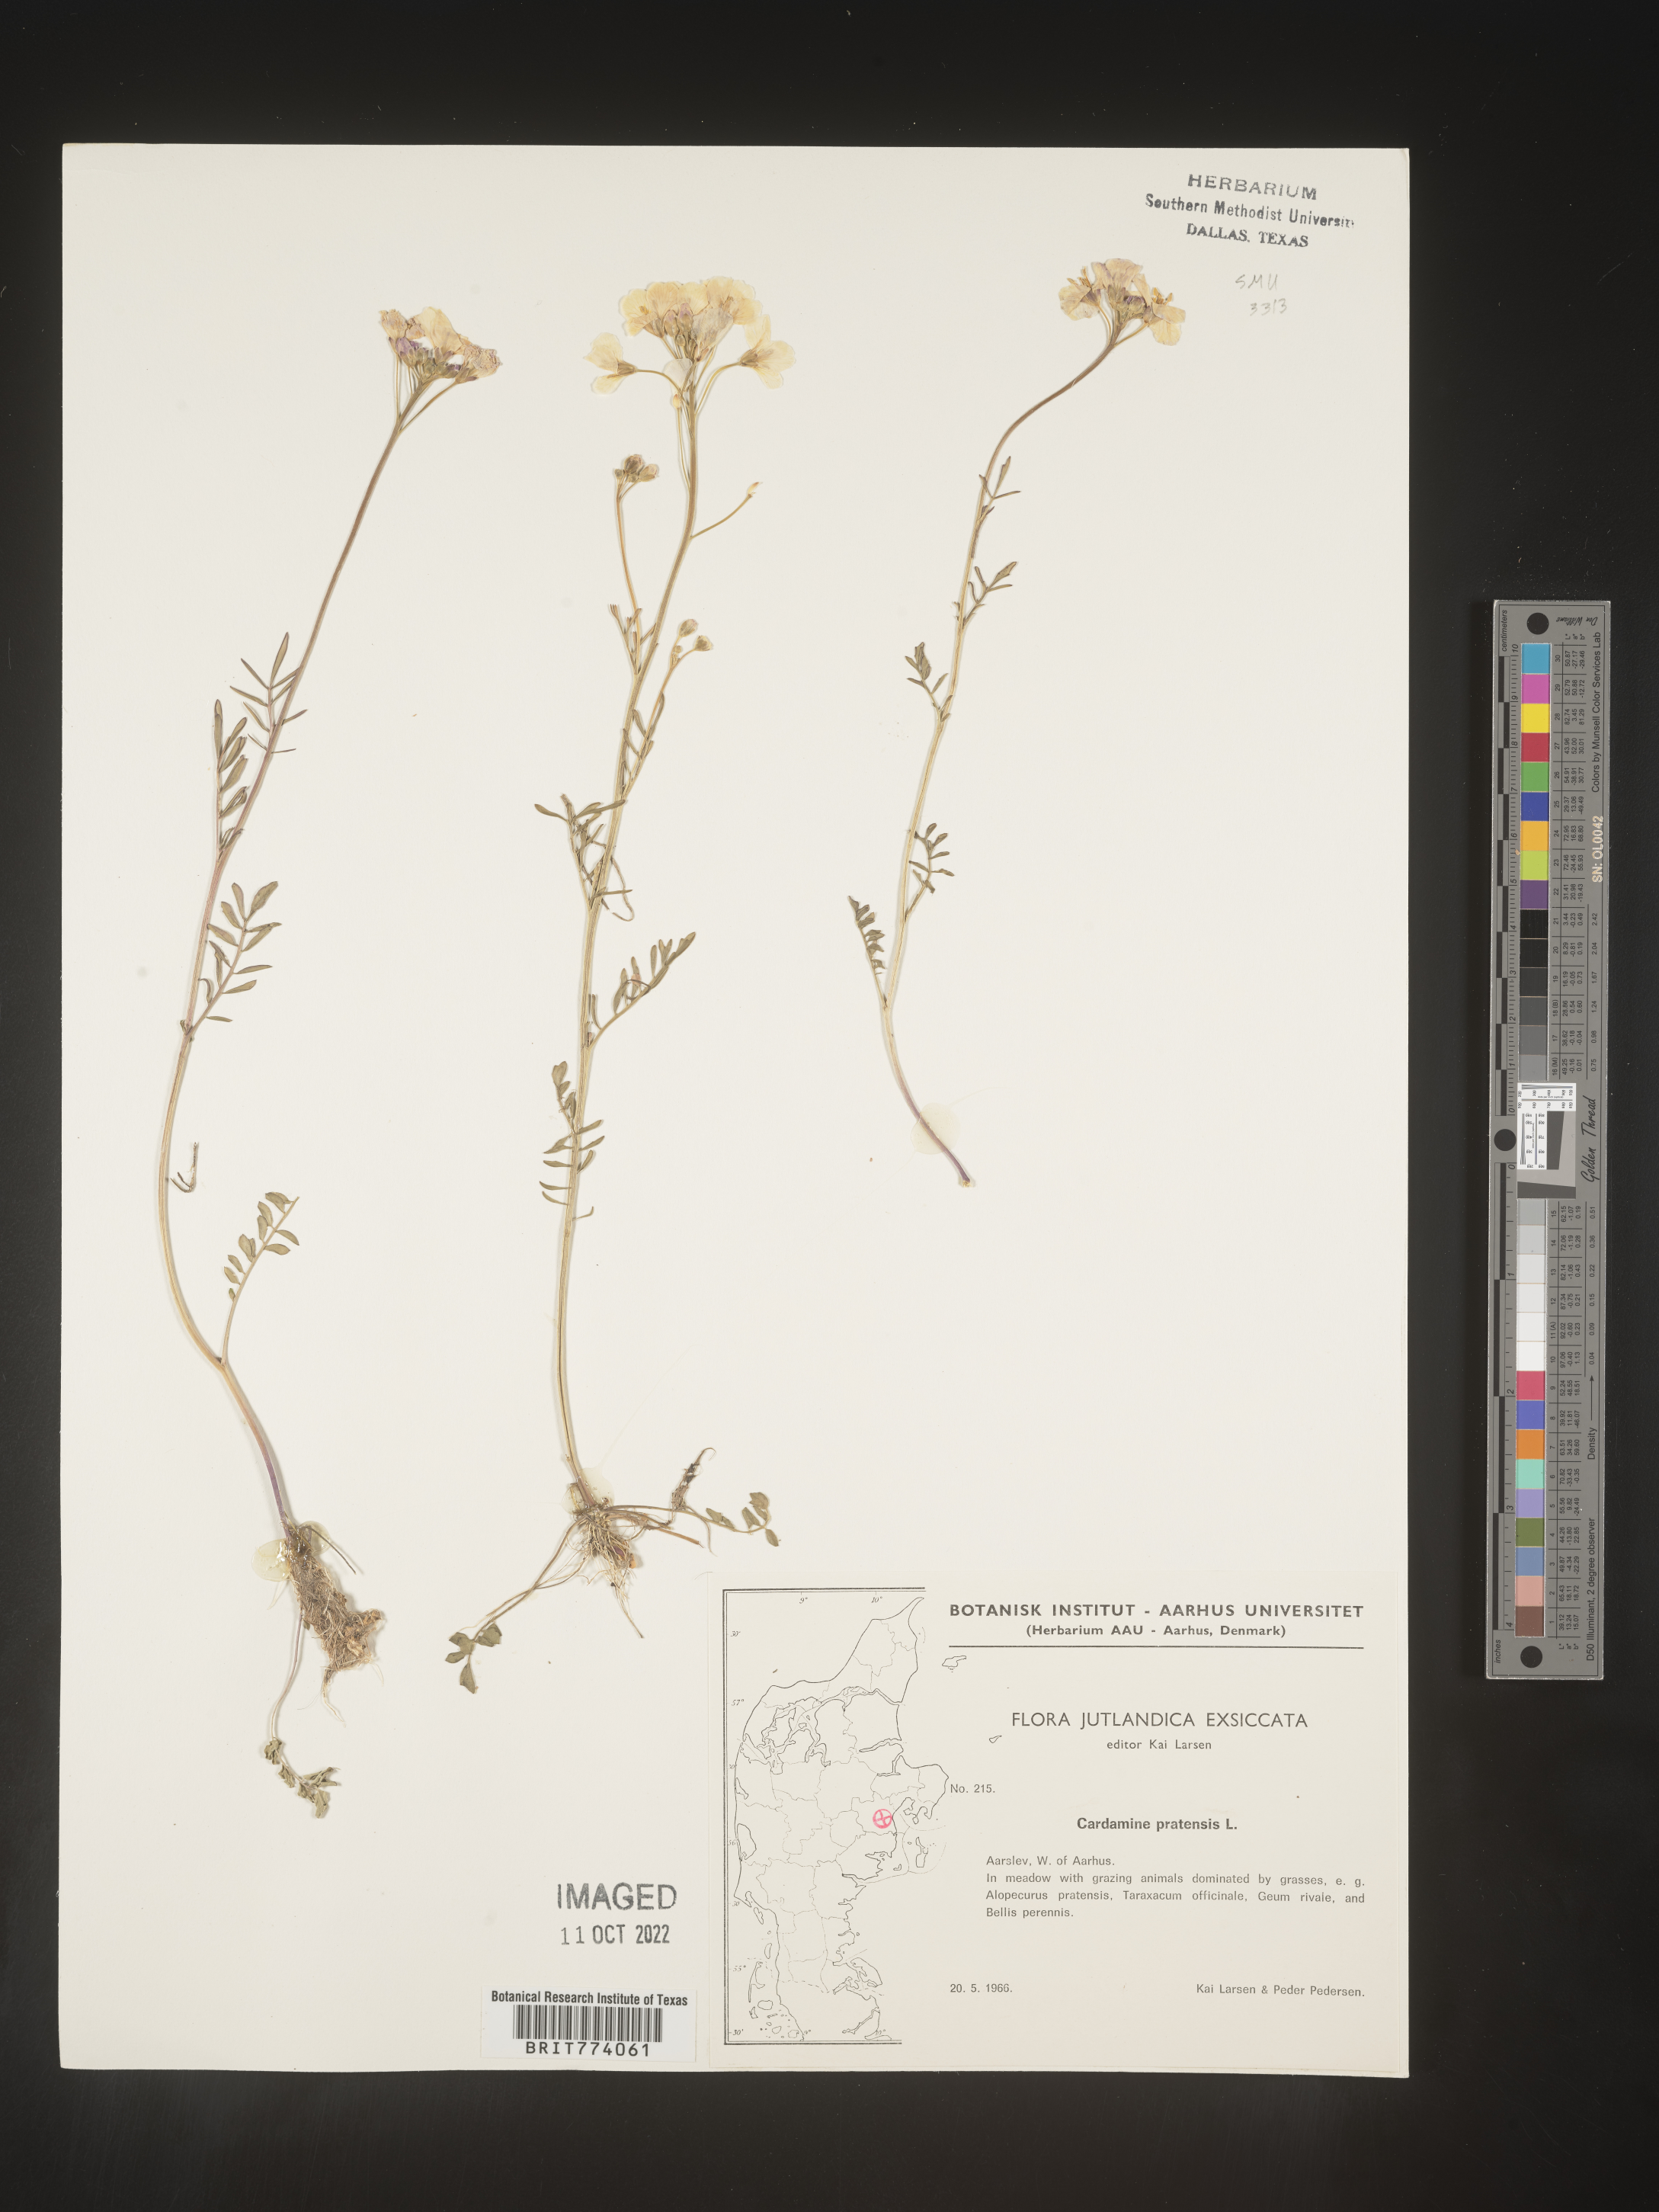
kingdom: Plantae
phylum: Tracheophyta
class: Magnoliopsida
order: Brassicales
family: Brassicaceae
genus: Cardamine
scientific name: Cardamine pratensis
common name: Cuckoo flower
